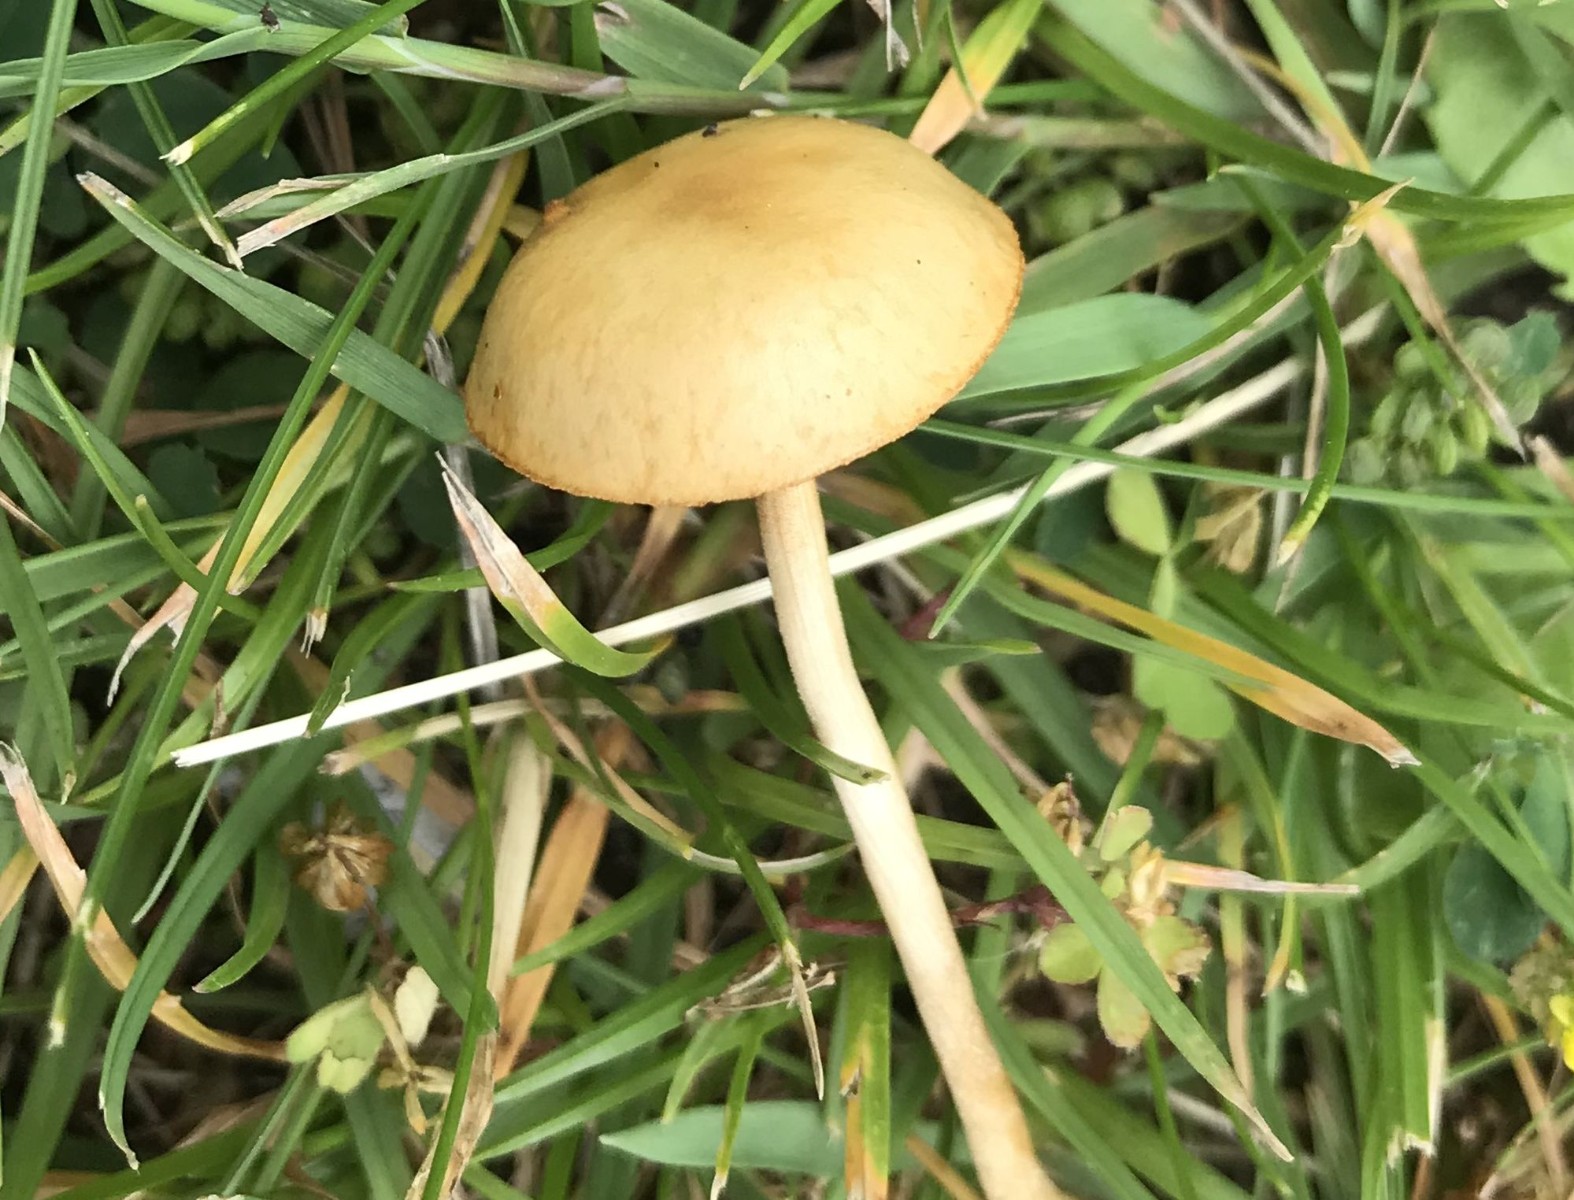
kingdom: Fungi
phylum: Basidiomycota
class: Agaricomycetes
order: Agaricales
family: Strophariaceae
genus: Agrocybe
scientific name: Agrocybe pediades
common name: almindelig agerhat
